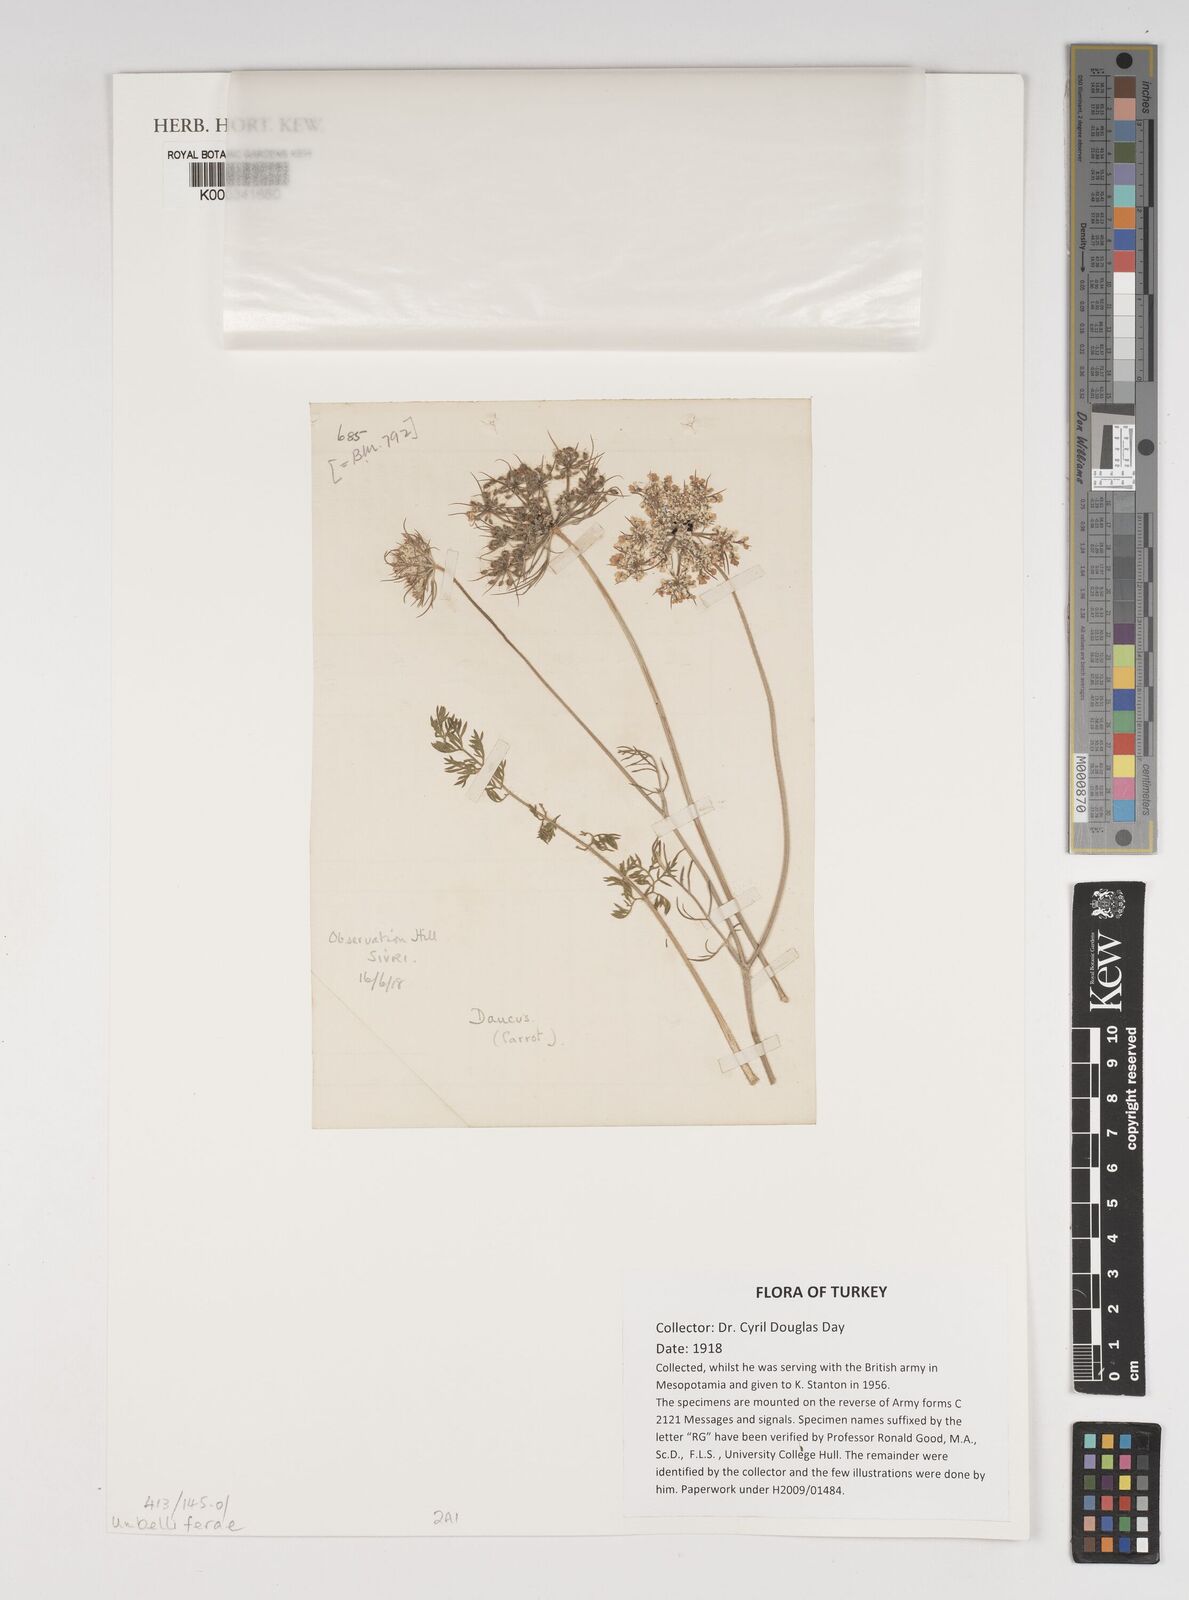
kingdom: Plantae
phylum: Tracheophyta
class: Magnoliopsida
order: Apiales
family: Apiaceae
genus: Daucus
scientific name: Daucus carota
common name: Wild carrot
